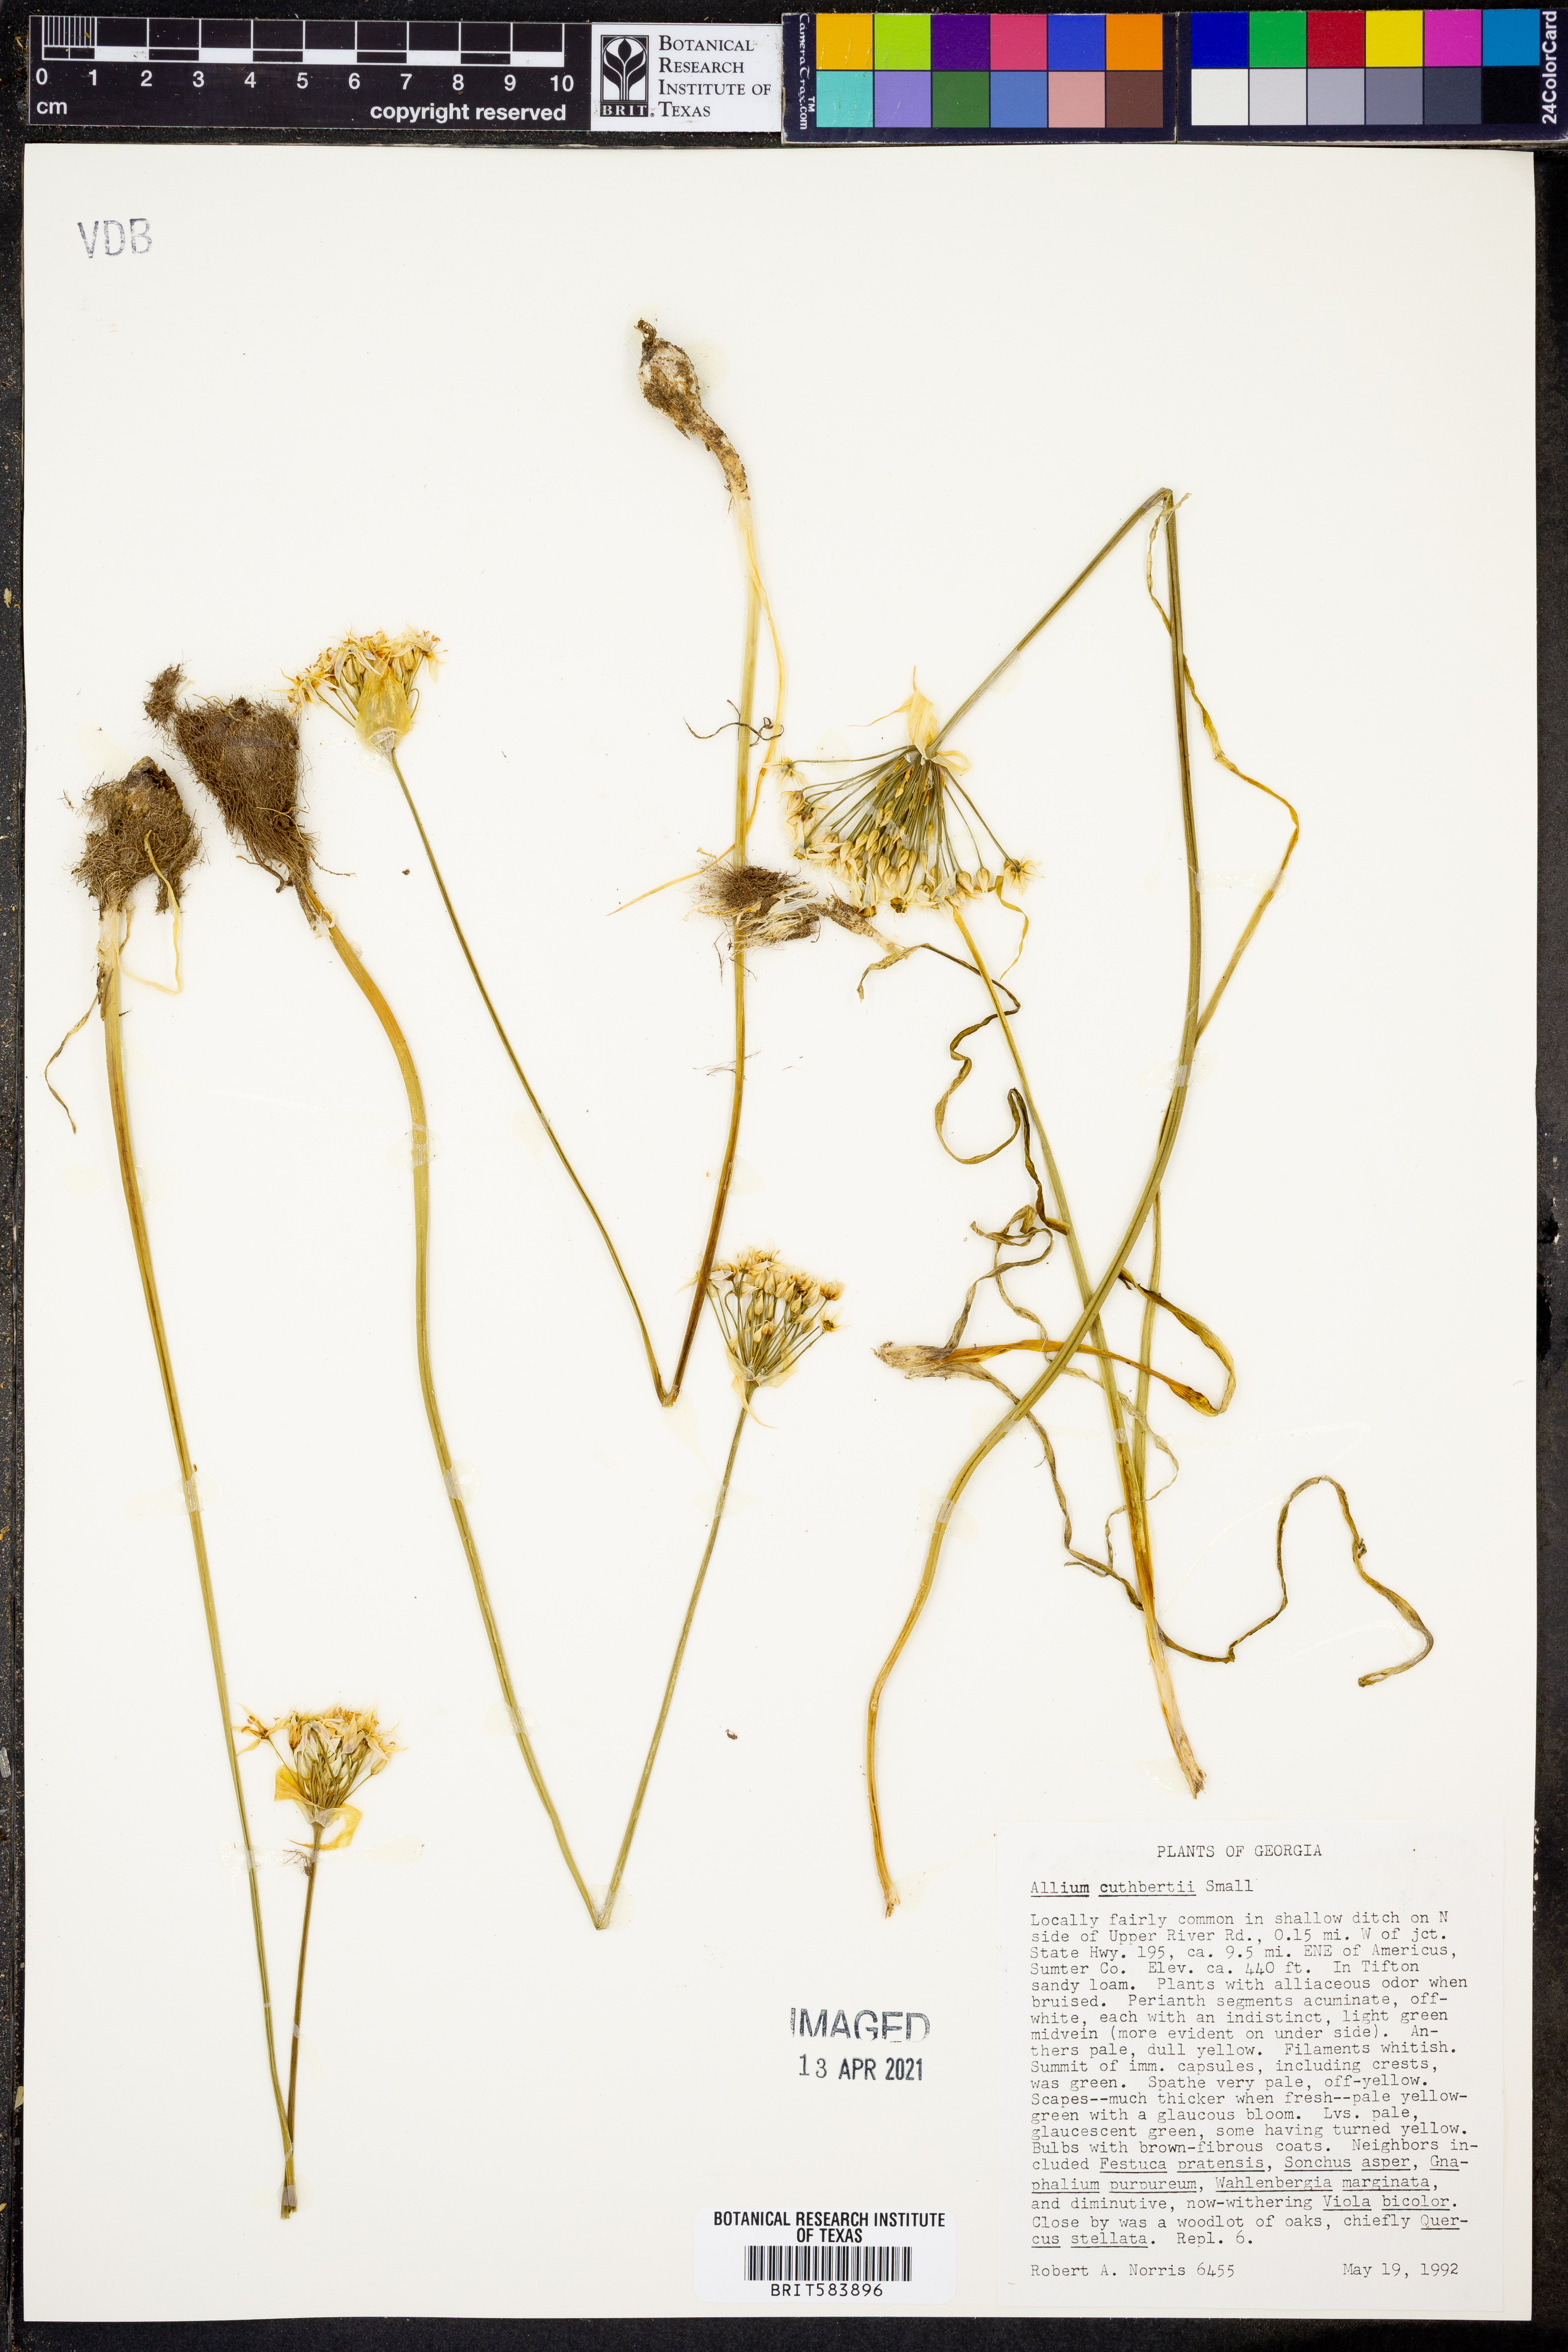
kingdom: Plantae
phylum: Tracheophyta
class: Liliopsida
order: Asparagales
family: Amaryllidaceae
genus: Allium
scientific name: Allium cuthbertii
